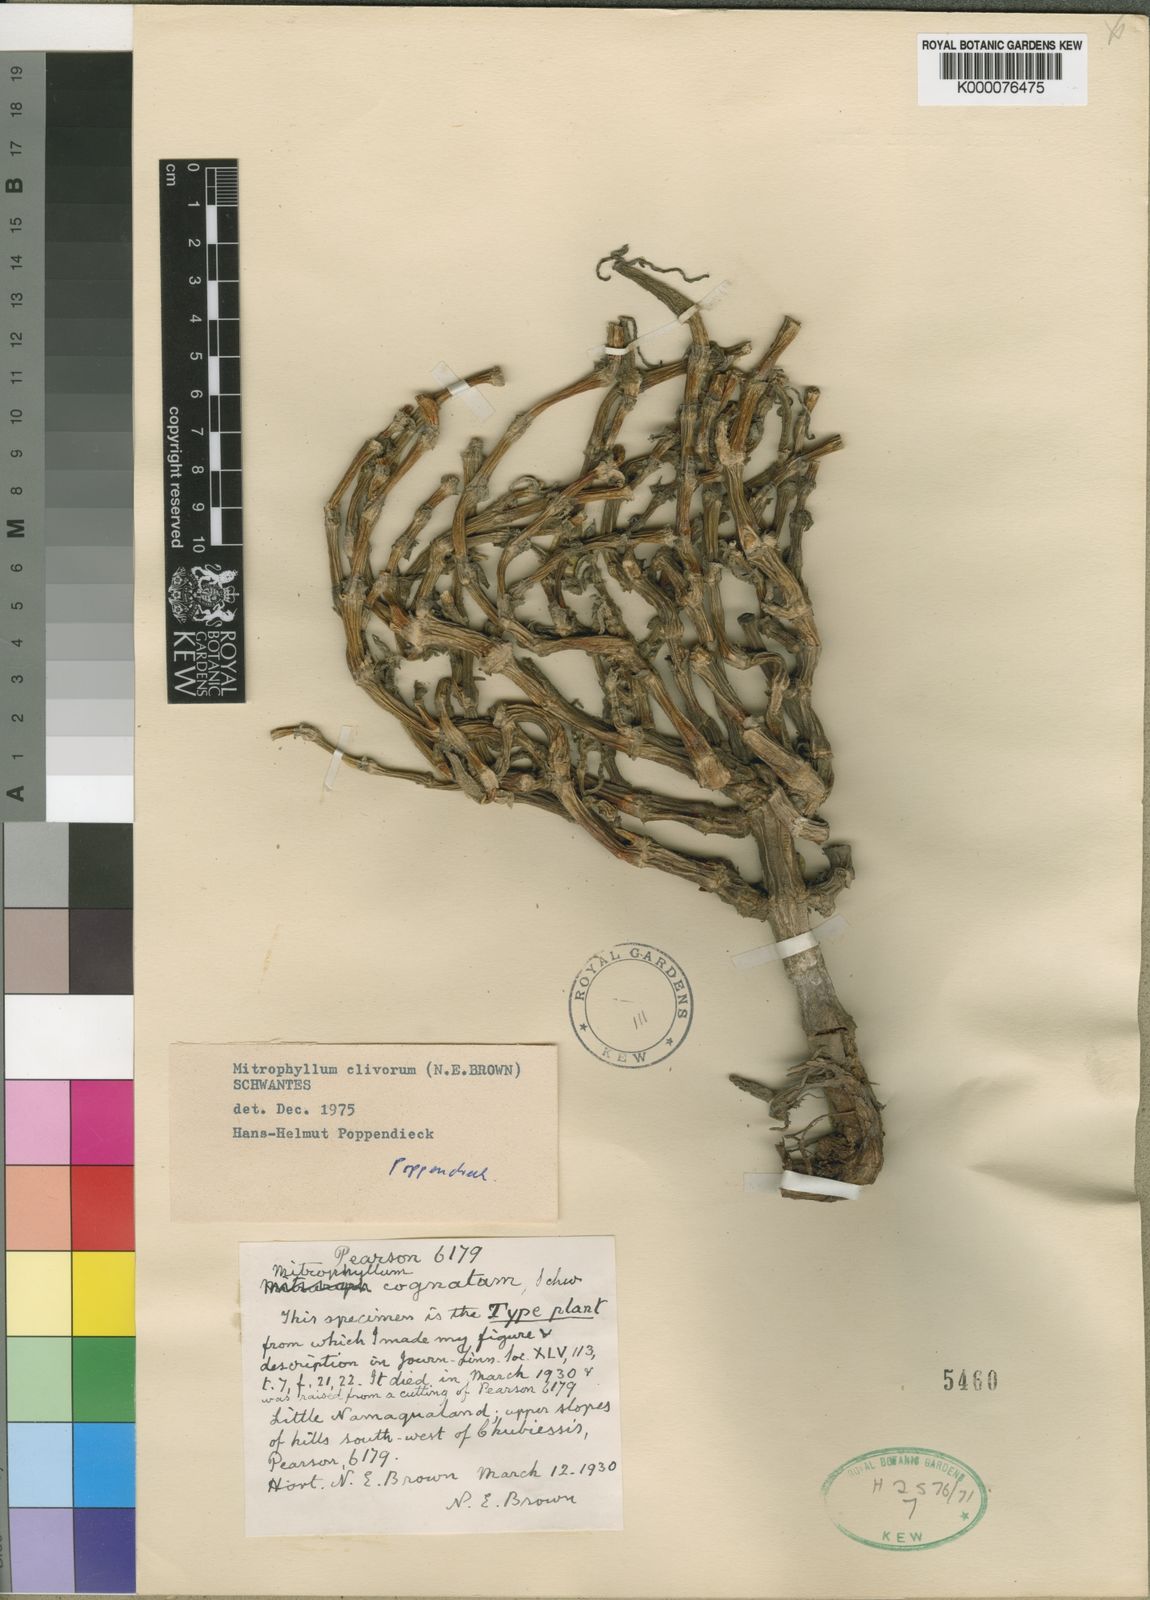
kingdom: Plantae
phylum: Tracheophyta
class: Magnoliopsida
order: Caryophyllales
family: Aizoaceae
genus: Mitrophyllum
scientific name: Mitrophyllum clivorum
